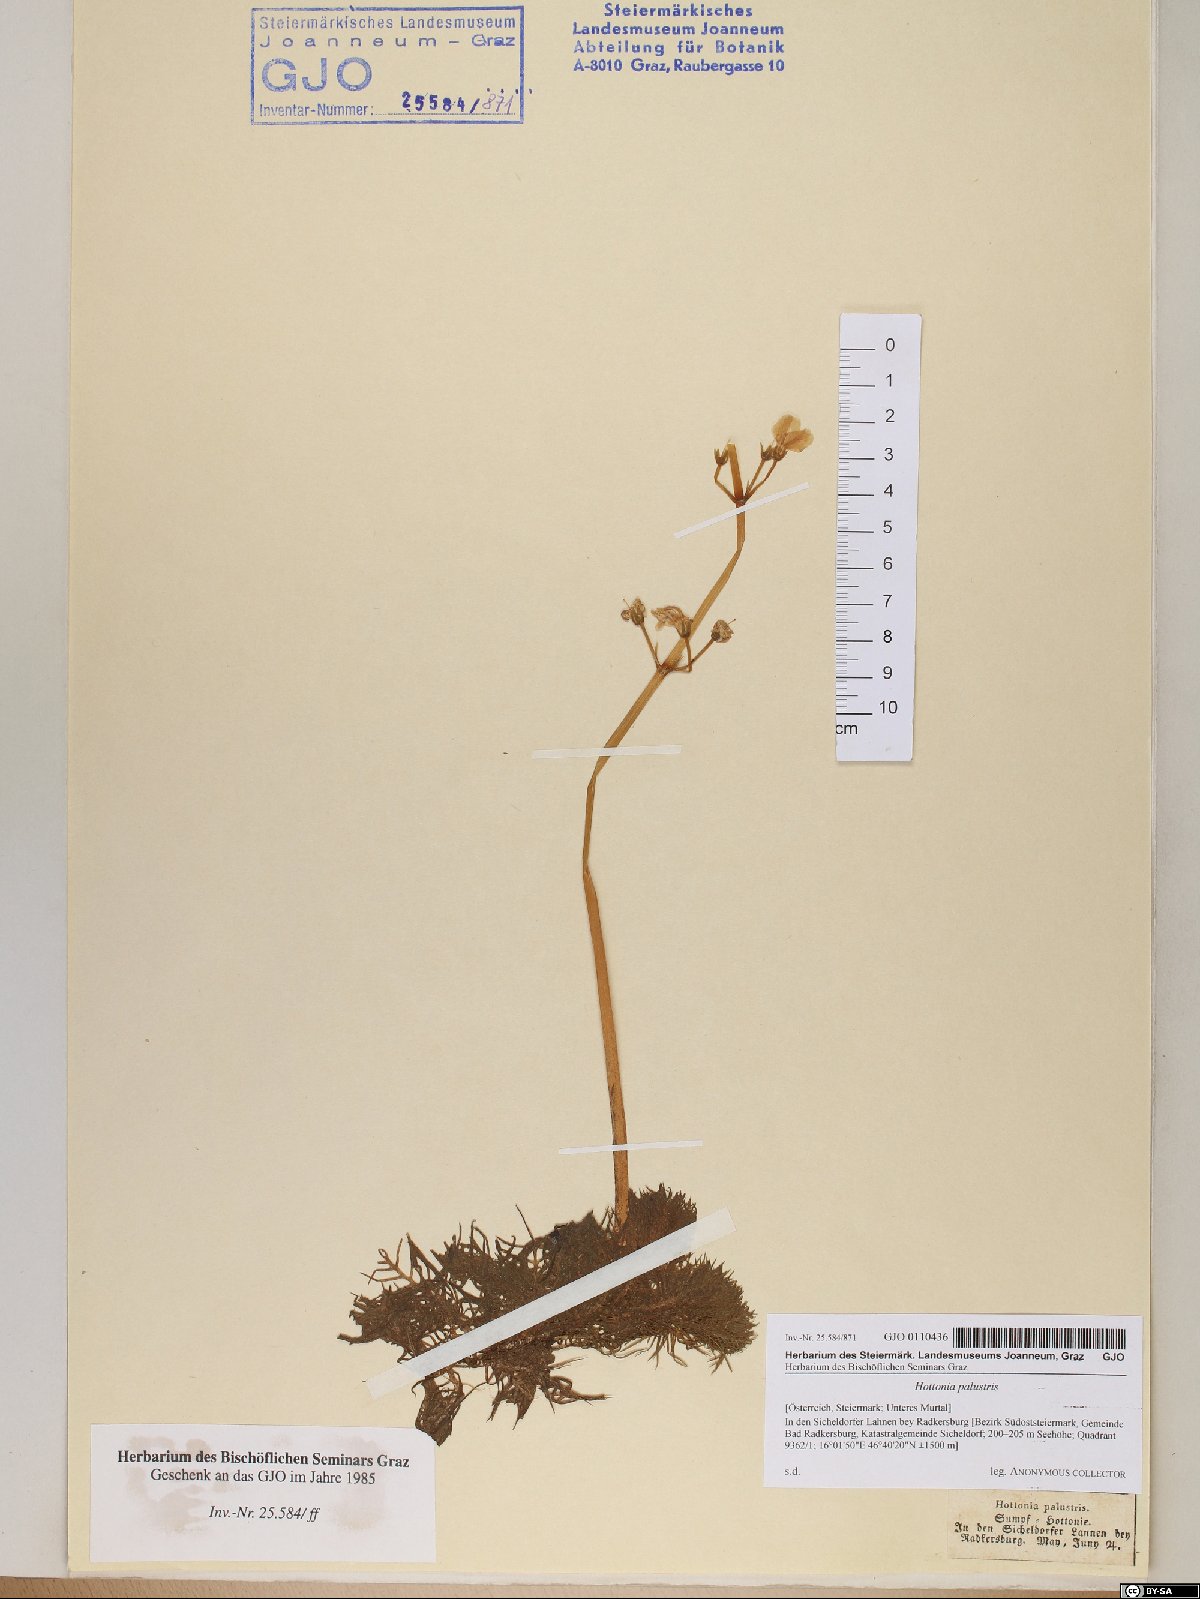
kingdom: Plantae
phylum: Tracheophyta
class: Magnoliopsida
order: Ericales
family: Primulaceae
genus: Hottonia
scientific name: Hottonia palustris
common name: Water-violet
